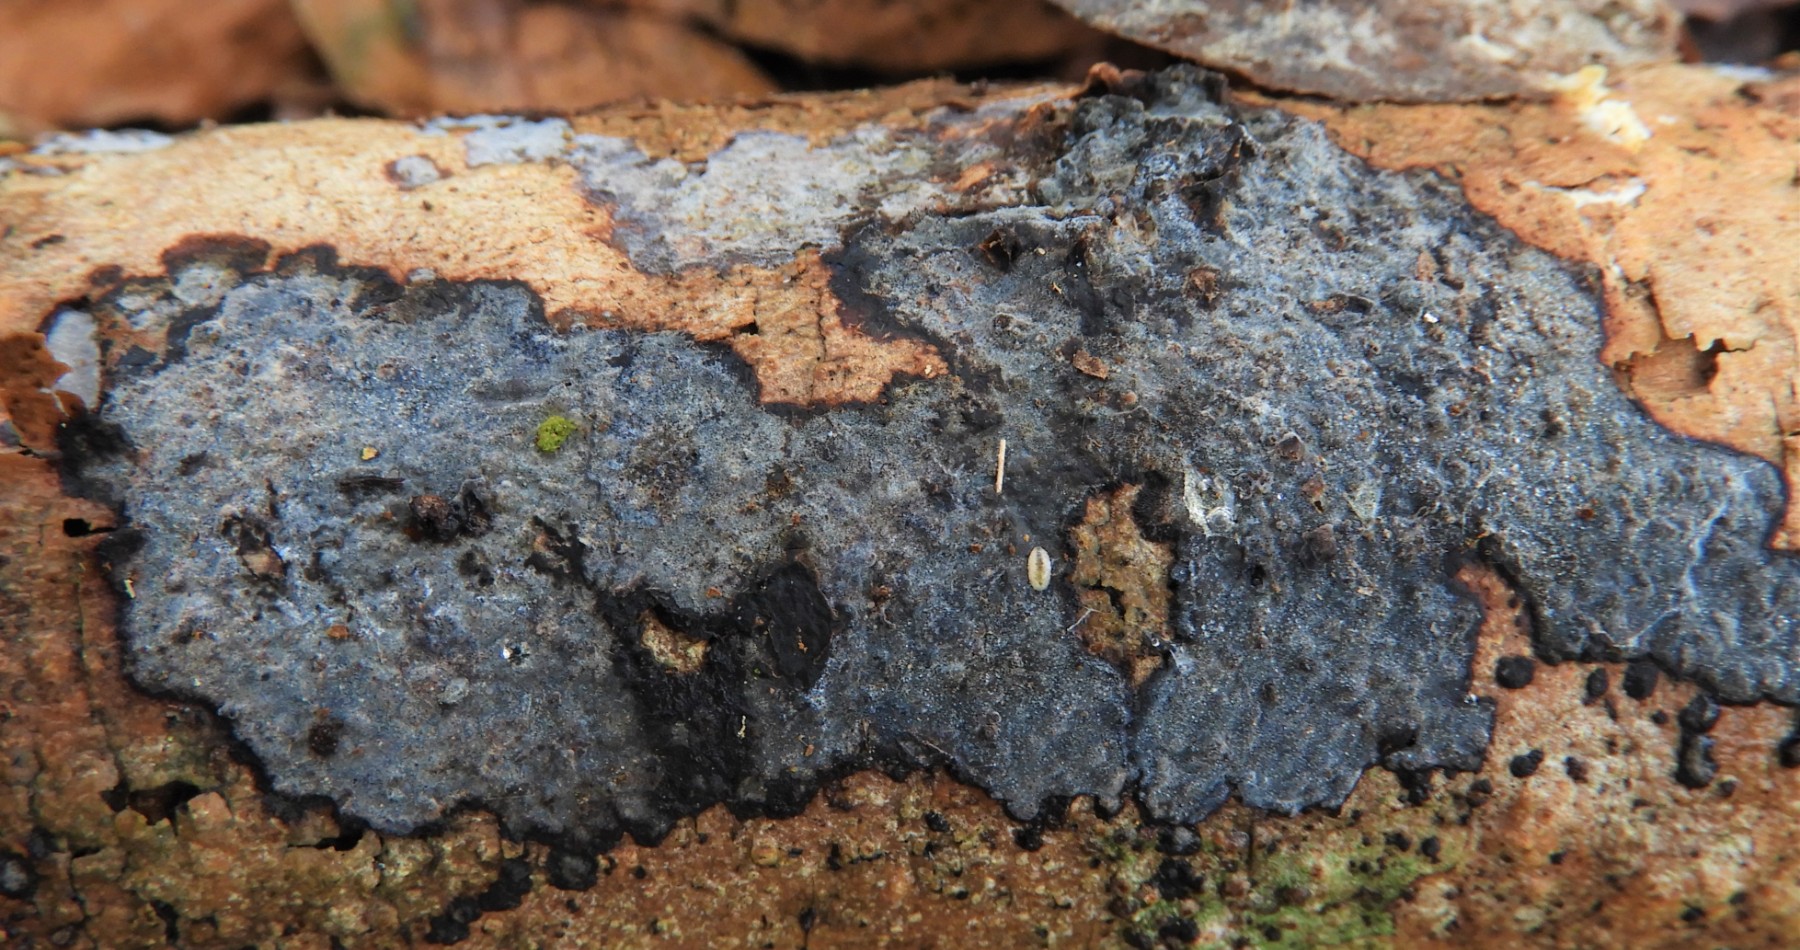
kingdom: Fungi
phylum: Basidiomycota
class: Agaricomycetes
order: Russulales
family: Peniophoraceae
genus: Peniophora
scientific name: Peniophora limitata
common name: mørkrandet voksskind
